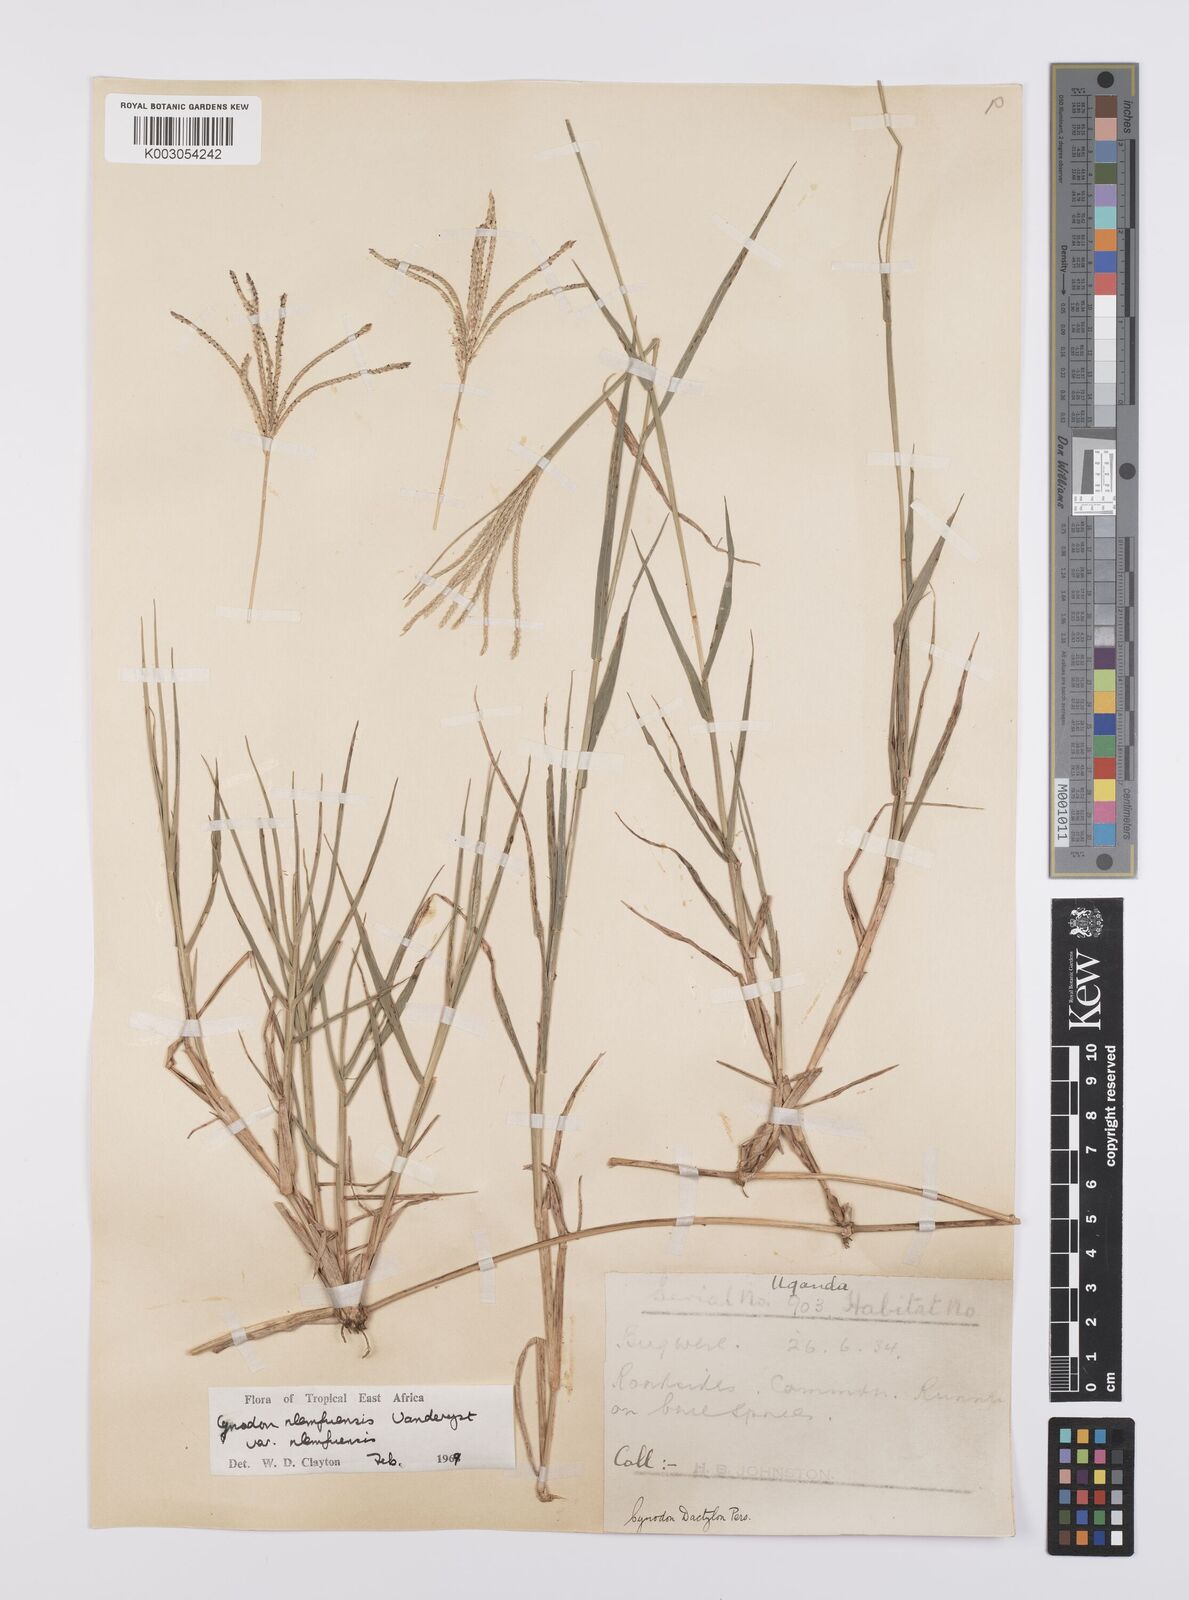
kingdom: Plantae
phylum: Tracheophyta
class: Liliopsida
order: Poales
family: Poaceae
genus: Cynodon
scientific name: Cynodon nlemfuensis
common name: African bermudagrass
